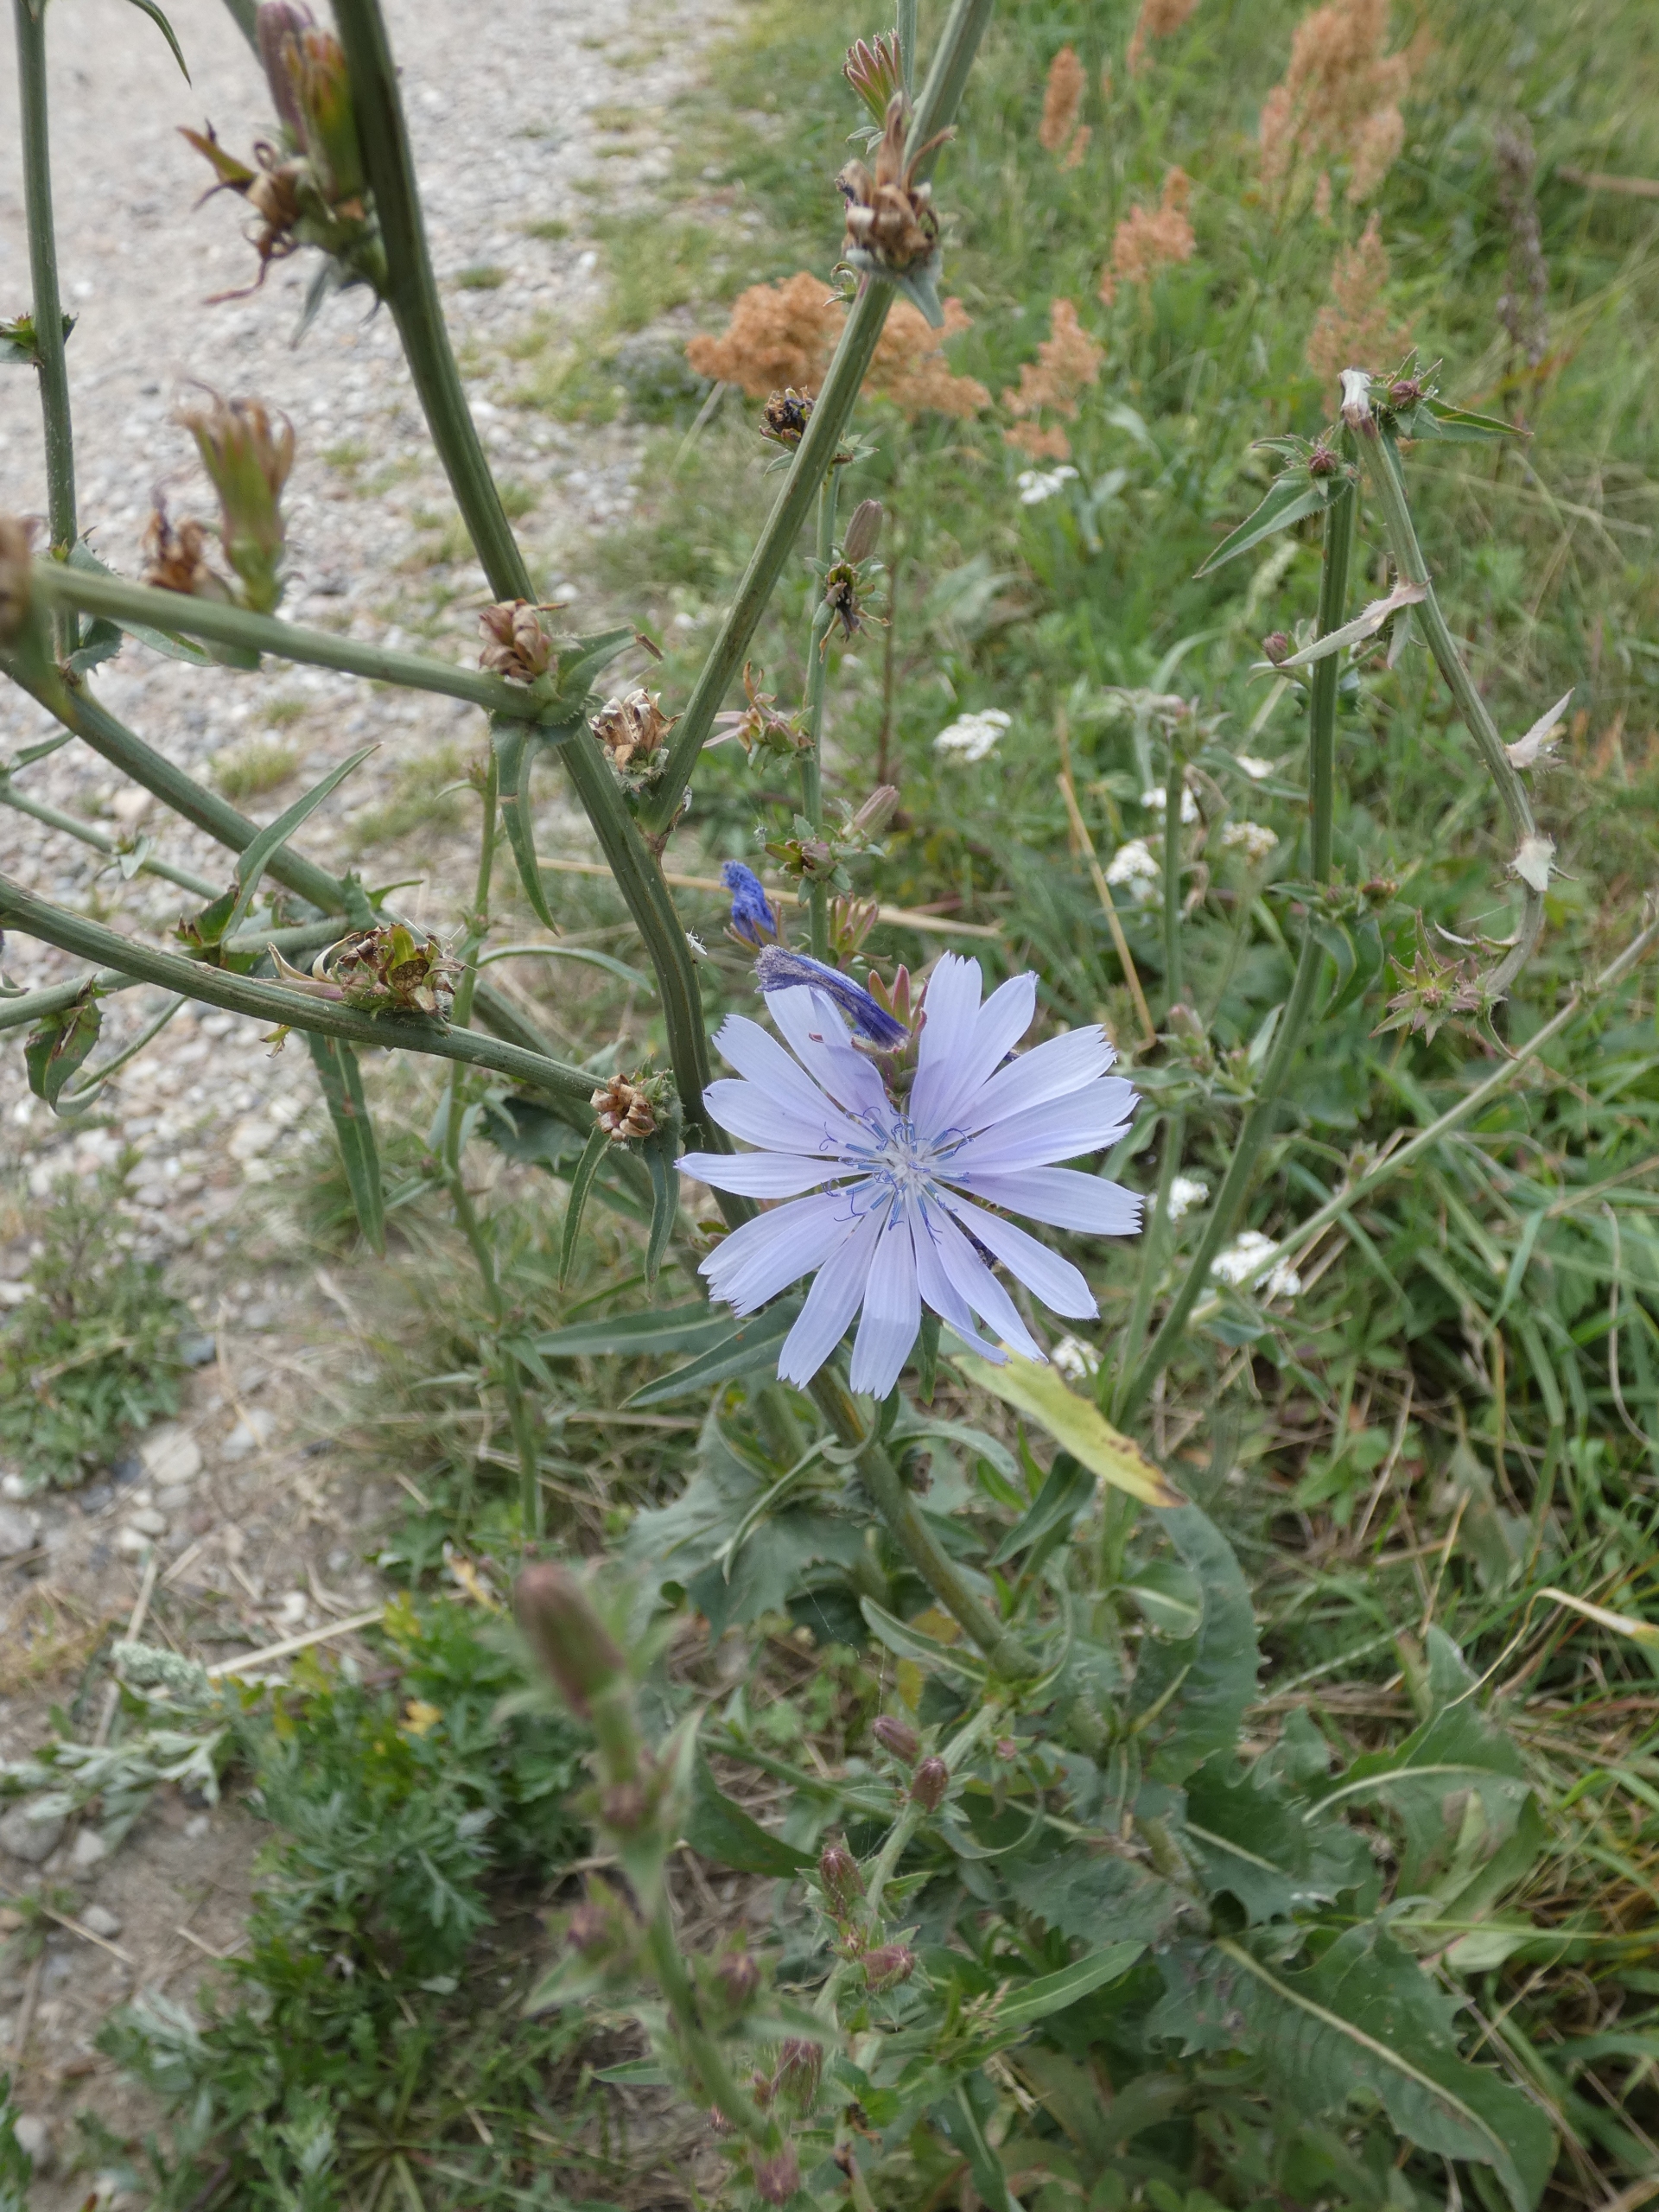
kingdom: Plantae
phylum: Tracheophyta
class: Magnoliopsida
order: Asterales
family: Asteraceae
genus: Cichorium
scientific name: Cichorium intybus
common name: Cikorie
